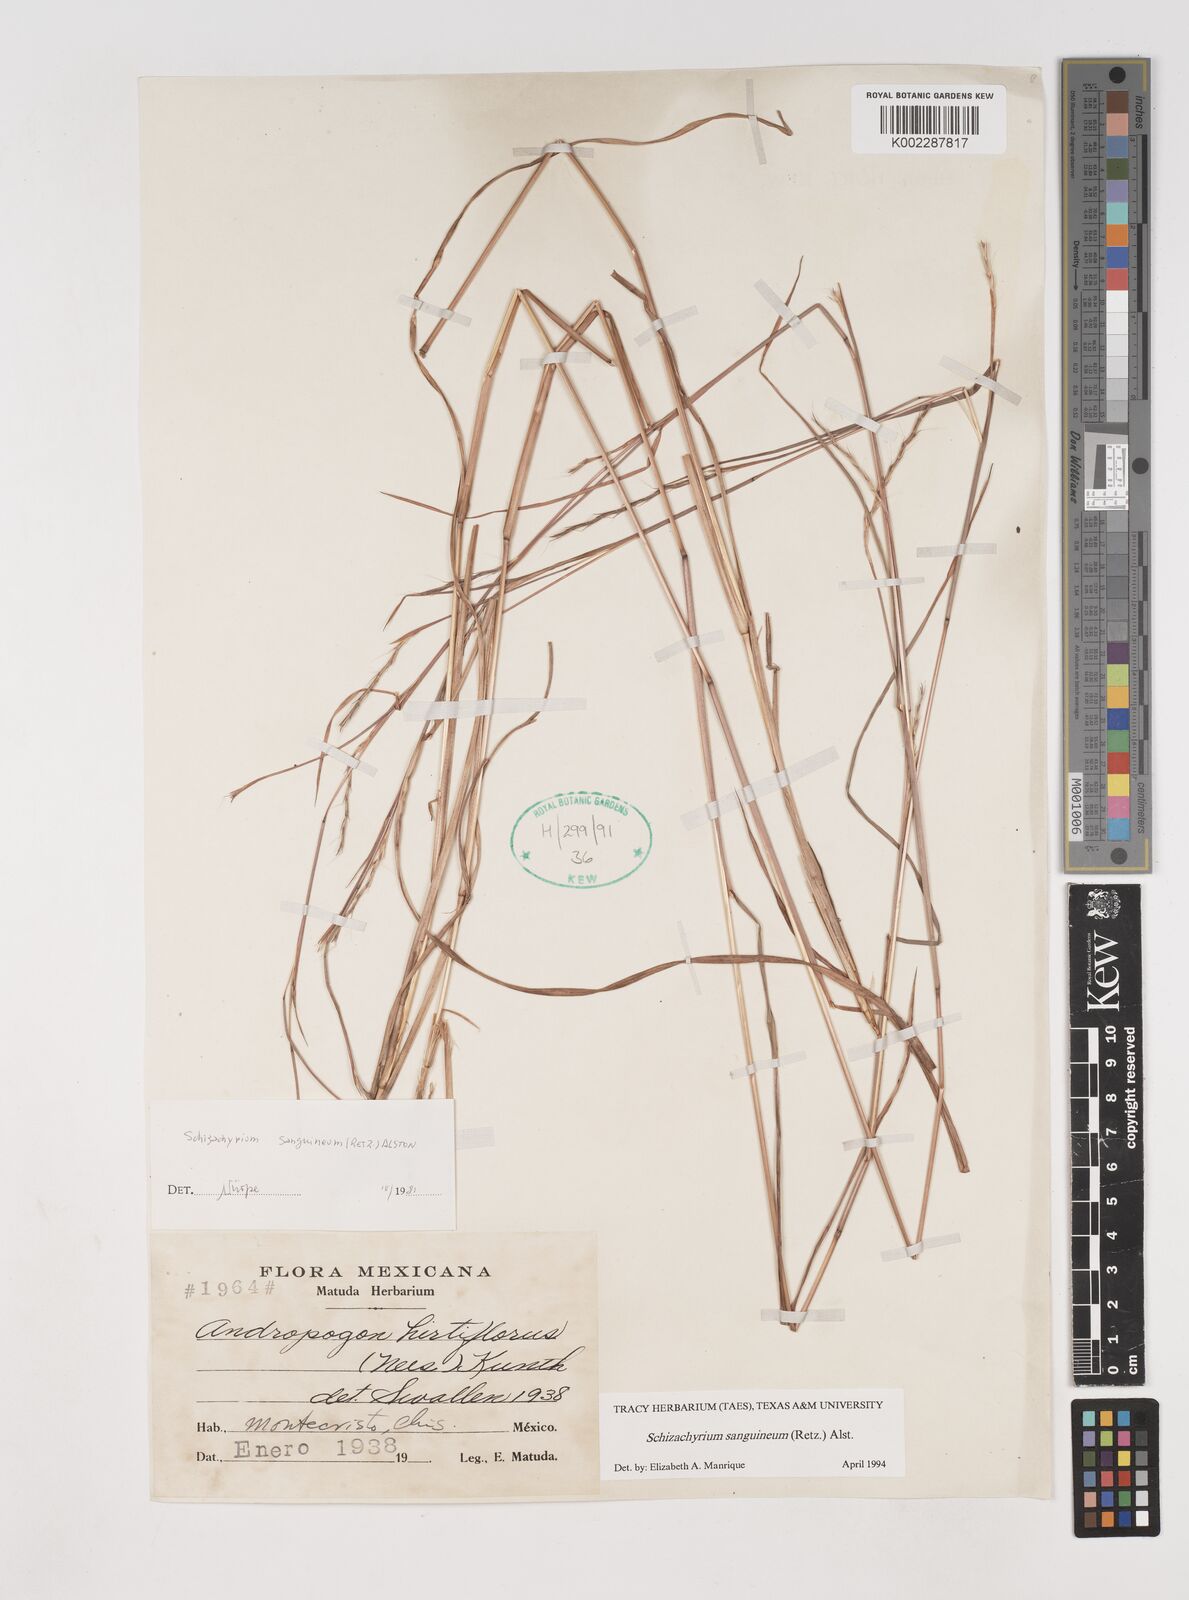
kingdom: Plantae
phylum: Tracheophyta
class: Liliopsida
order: Poales
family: Poaceae
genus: Schizachyrium
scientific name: Schizachyrium sanguineum
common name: Crimson bluestem
